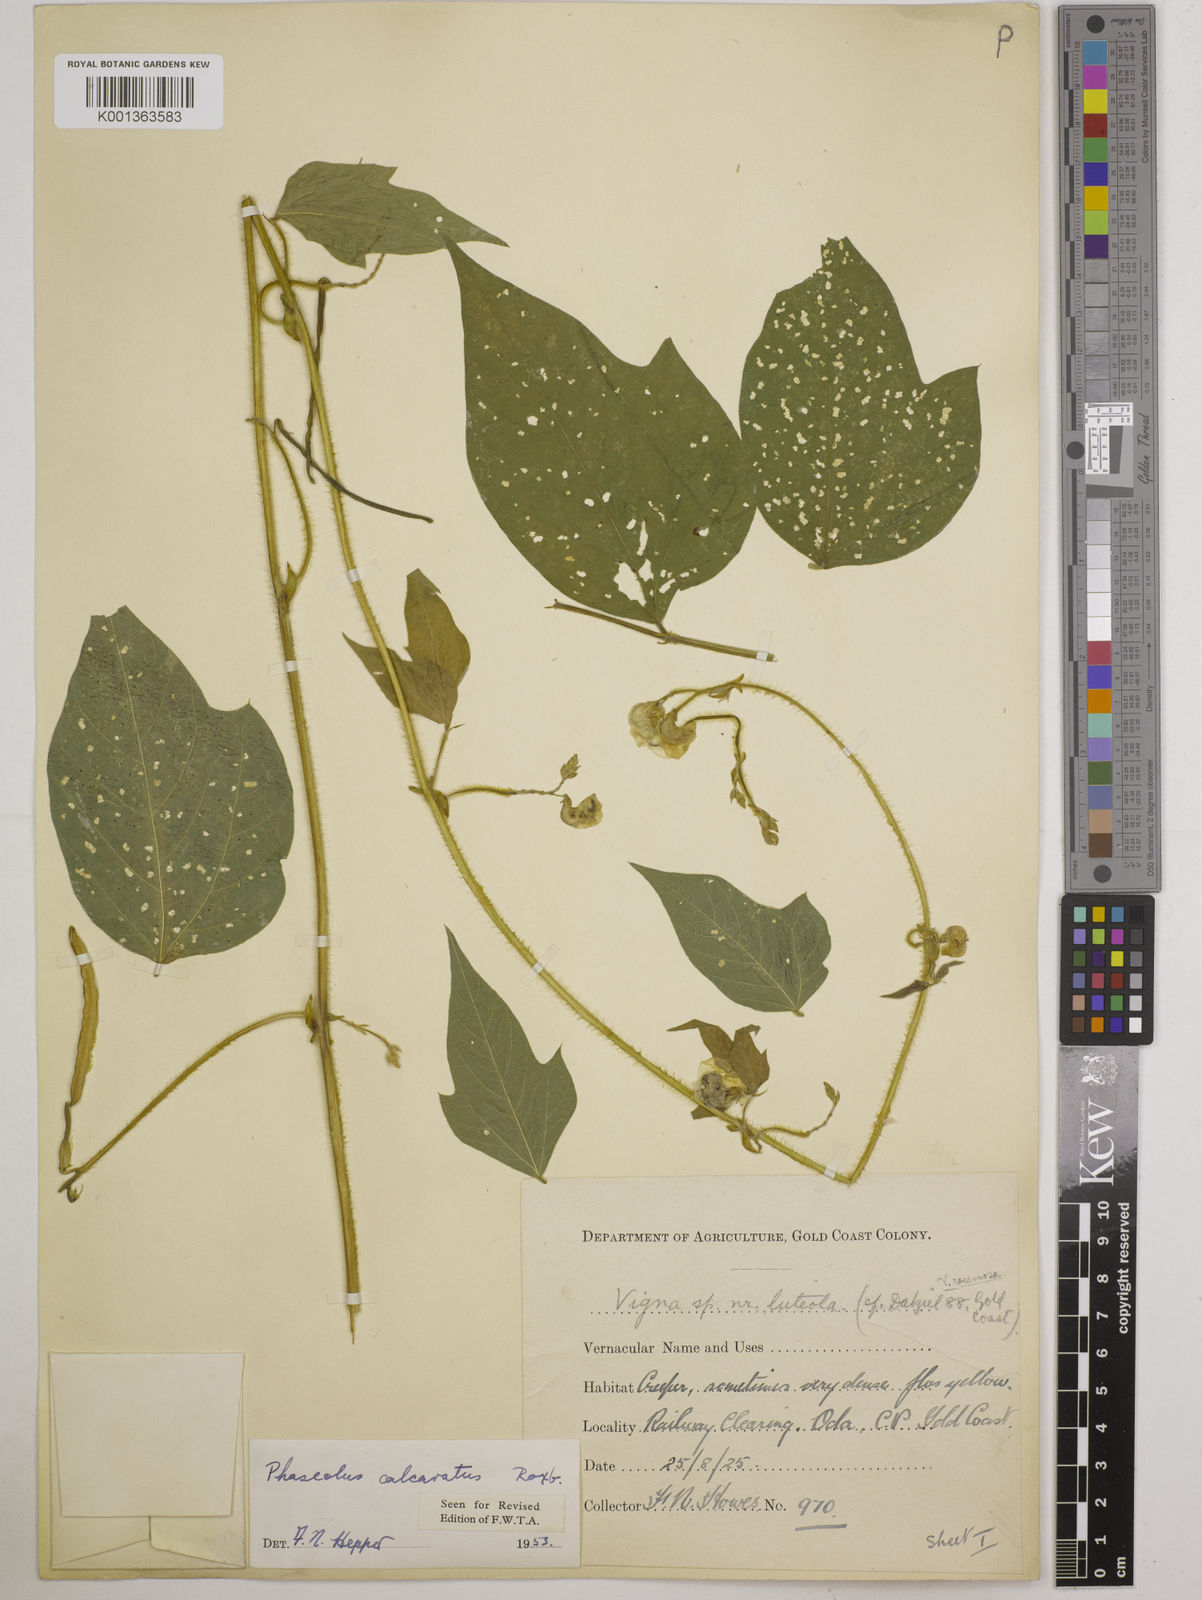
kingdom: Plantae
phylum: Tracheophyta
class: Magnoliopsida
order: Fabales
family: Fabaceae
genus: Vigna
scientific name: Vigna umbellata
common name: Oriental-bean
